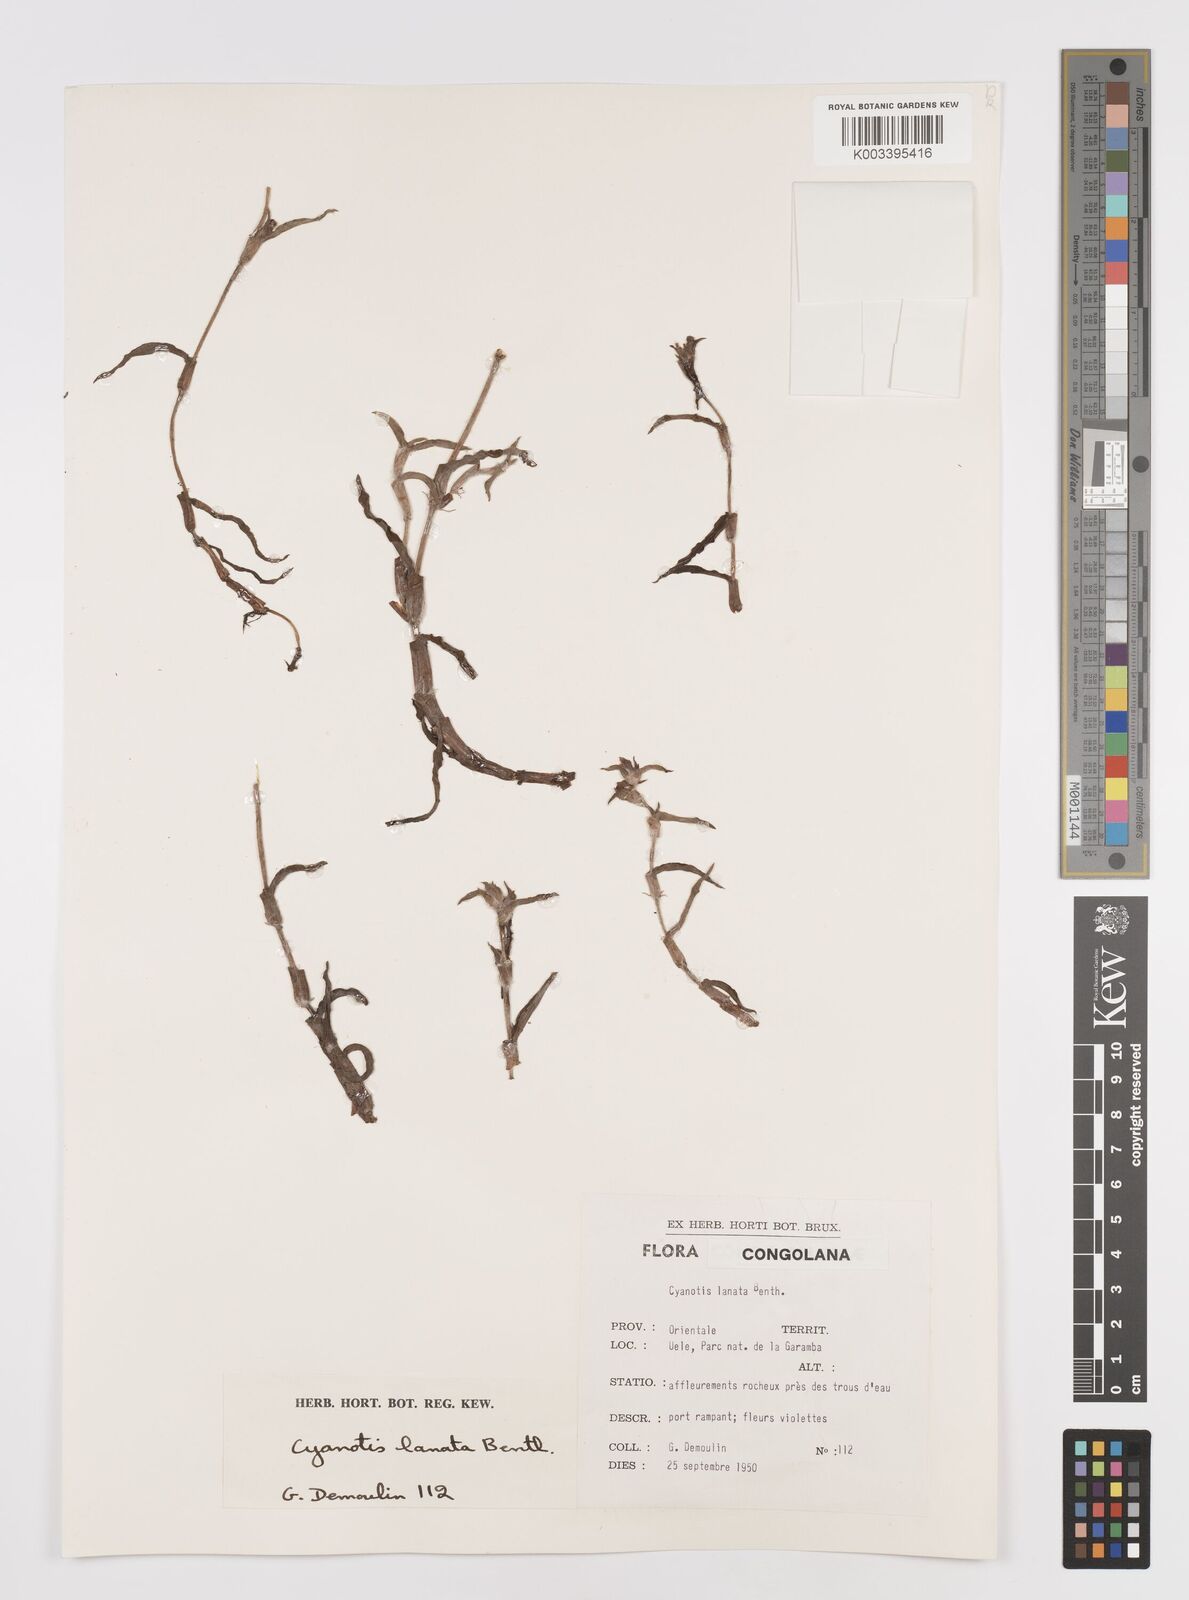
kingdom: Plantae
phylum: Tracheophyta
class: Liliopsida
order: Commelinales
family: Commelinaceae
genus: Cyanotis
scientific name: Cyanotis lanata
